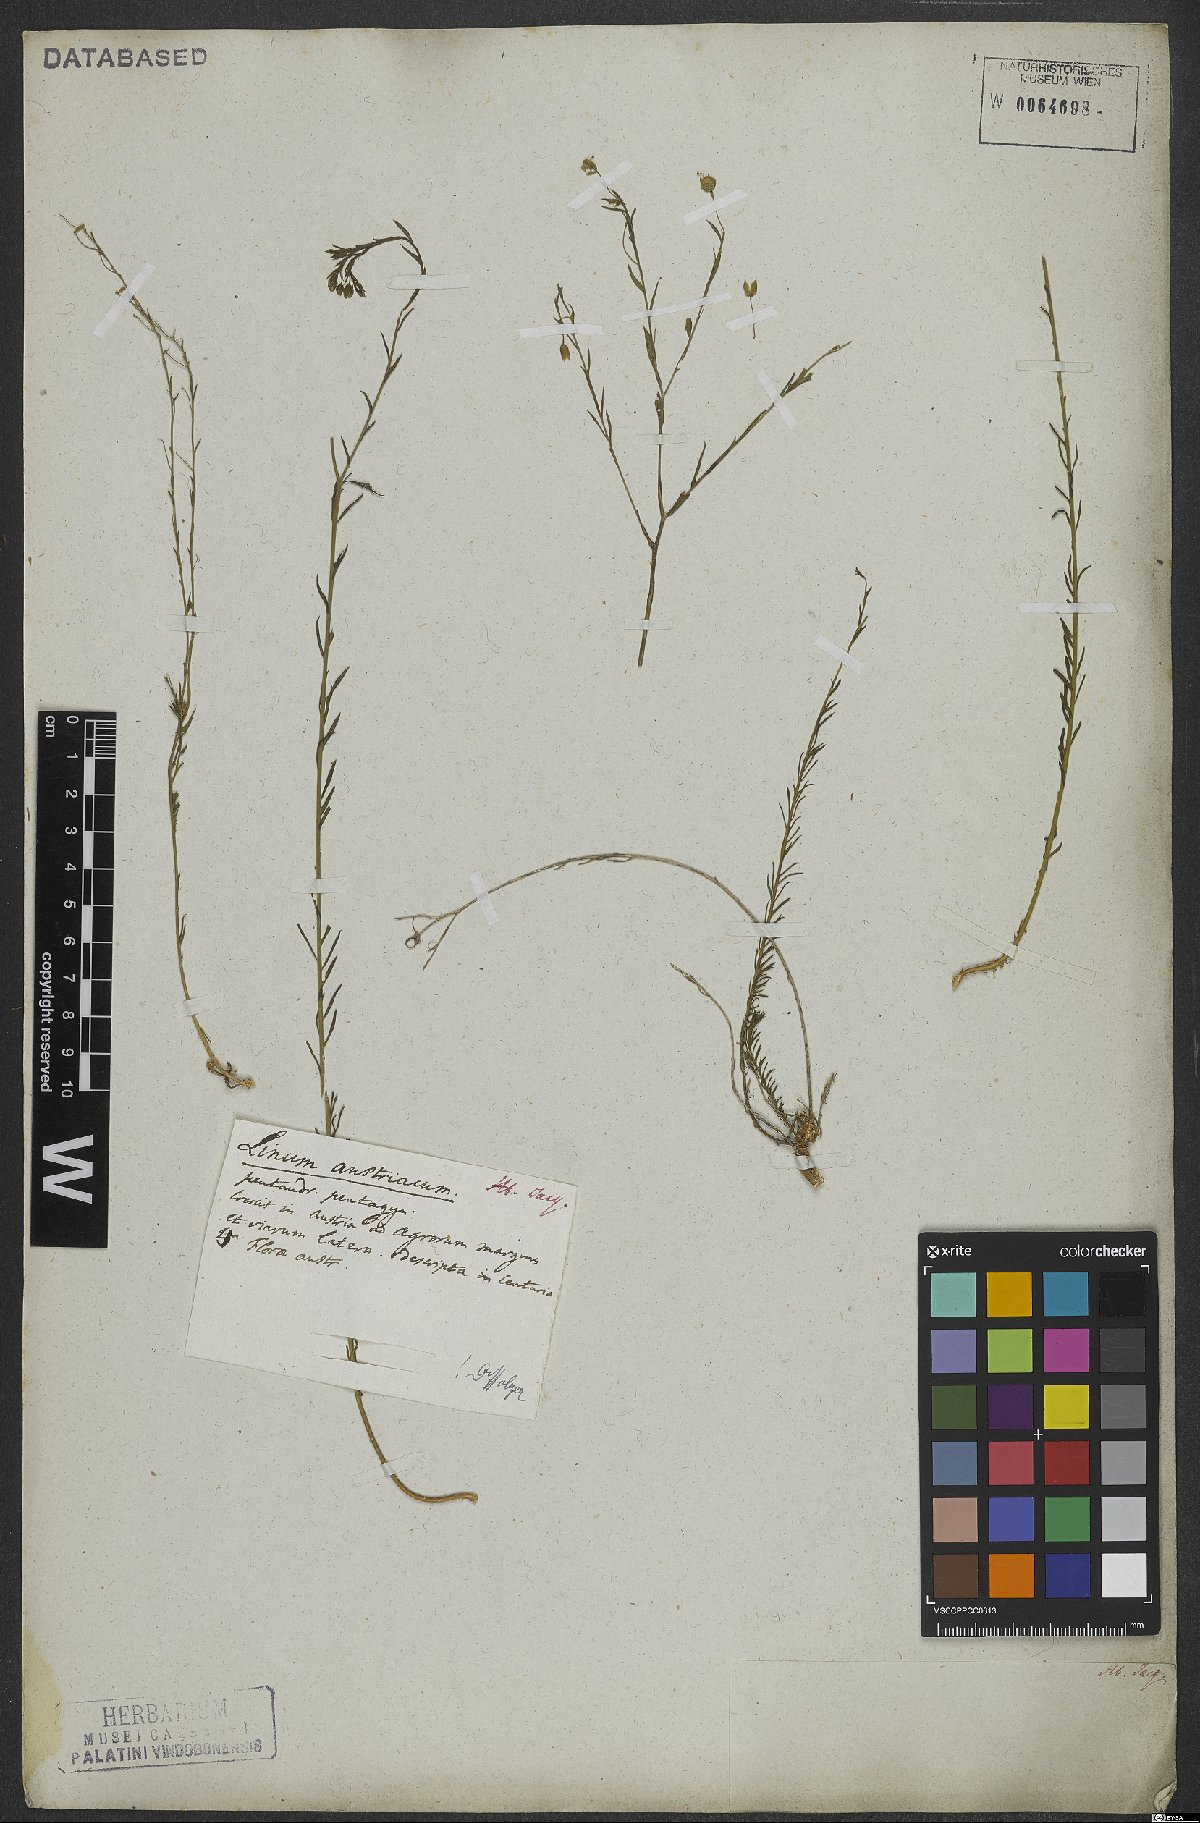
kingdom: Plantae
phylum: Tracheophyta
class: Magnoliopsida
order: Malpighiales
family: Linaceae
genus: Linum
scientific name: Linum austriacum
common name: Austrian flax
